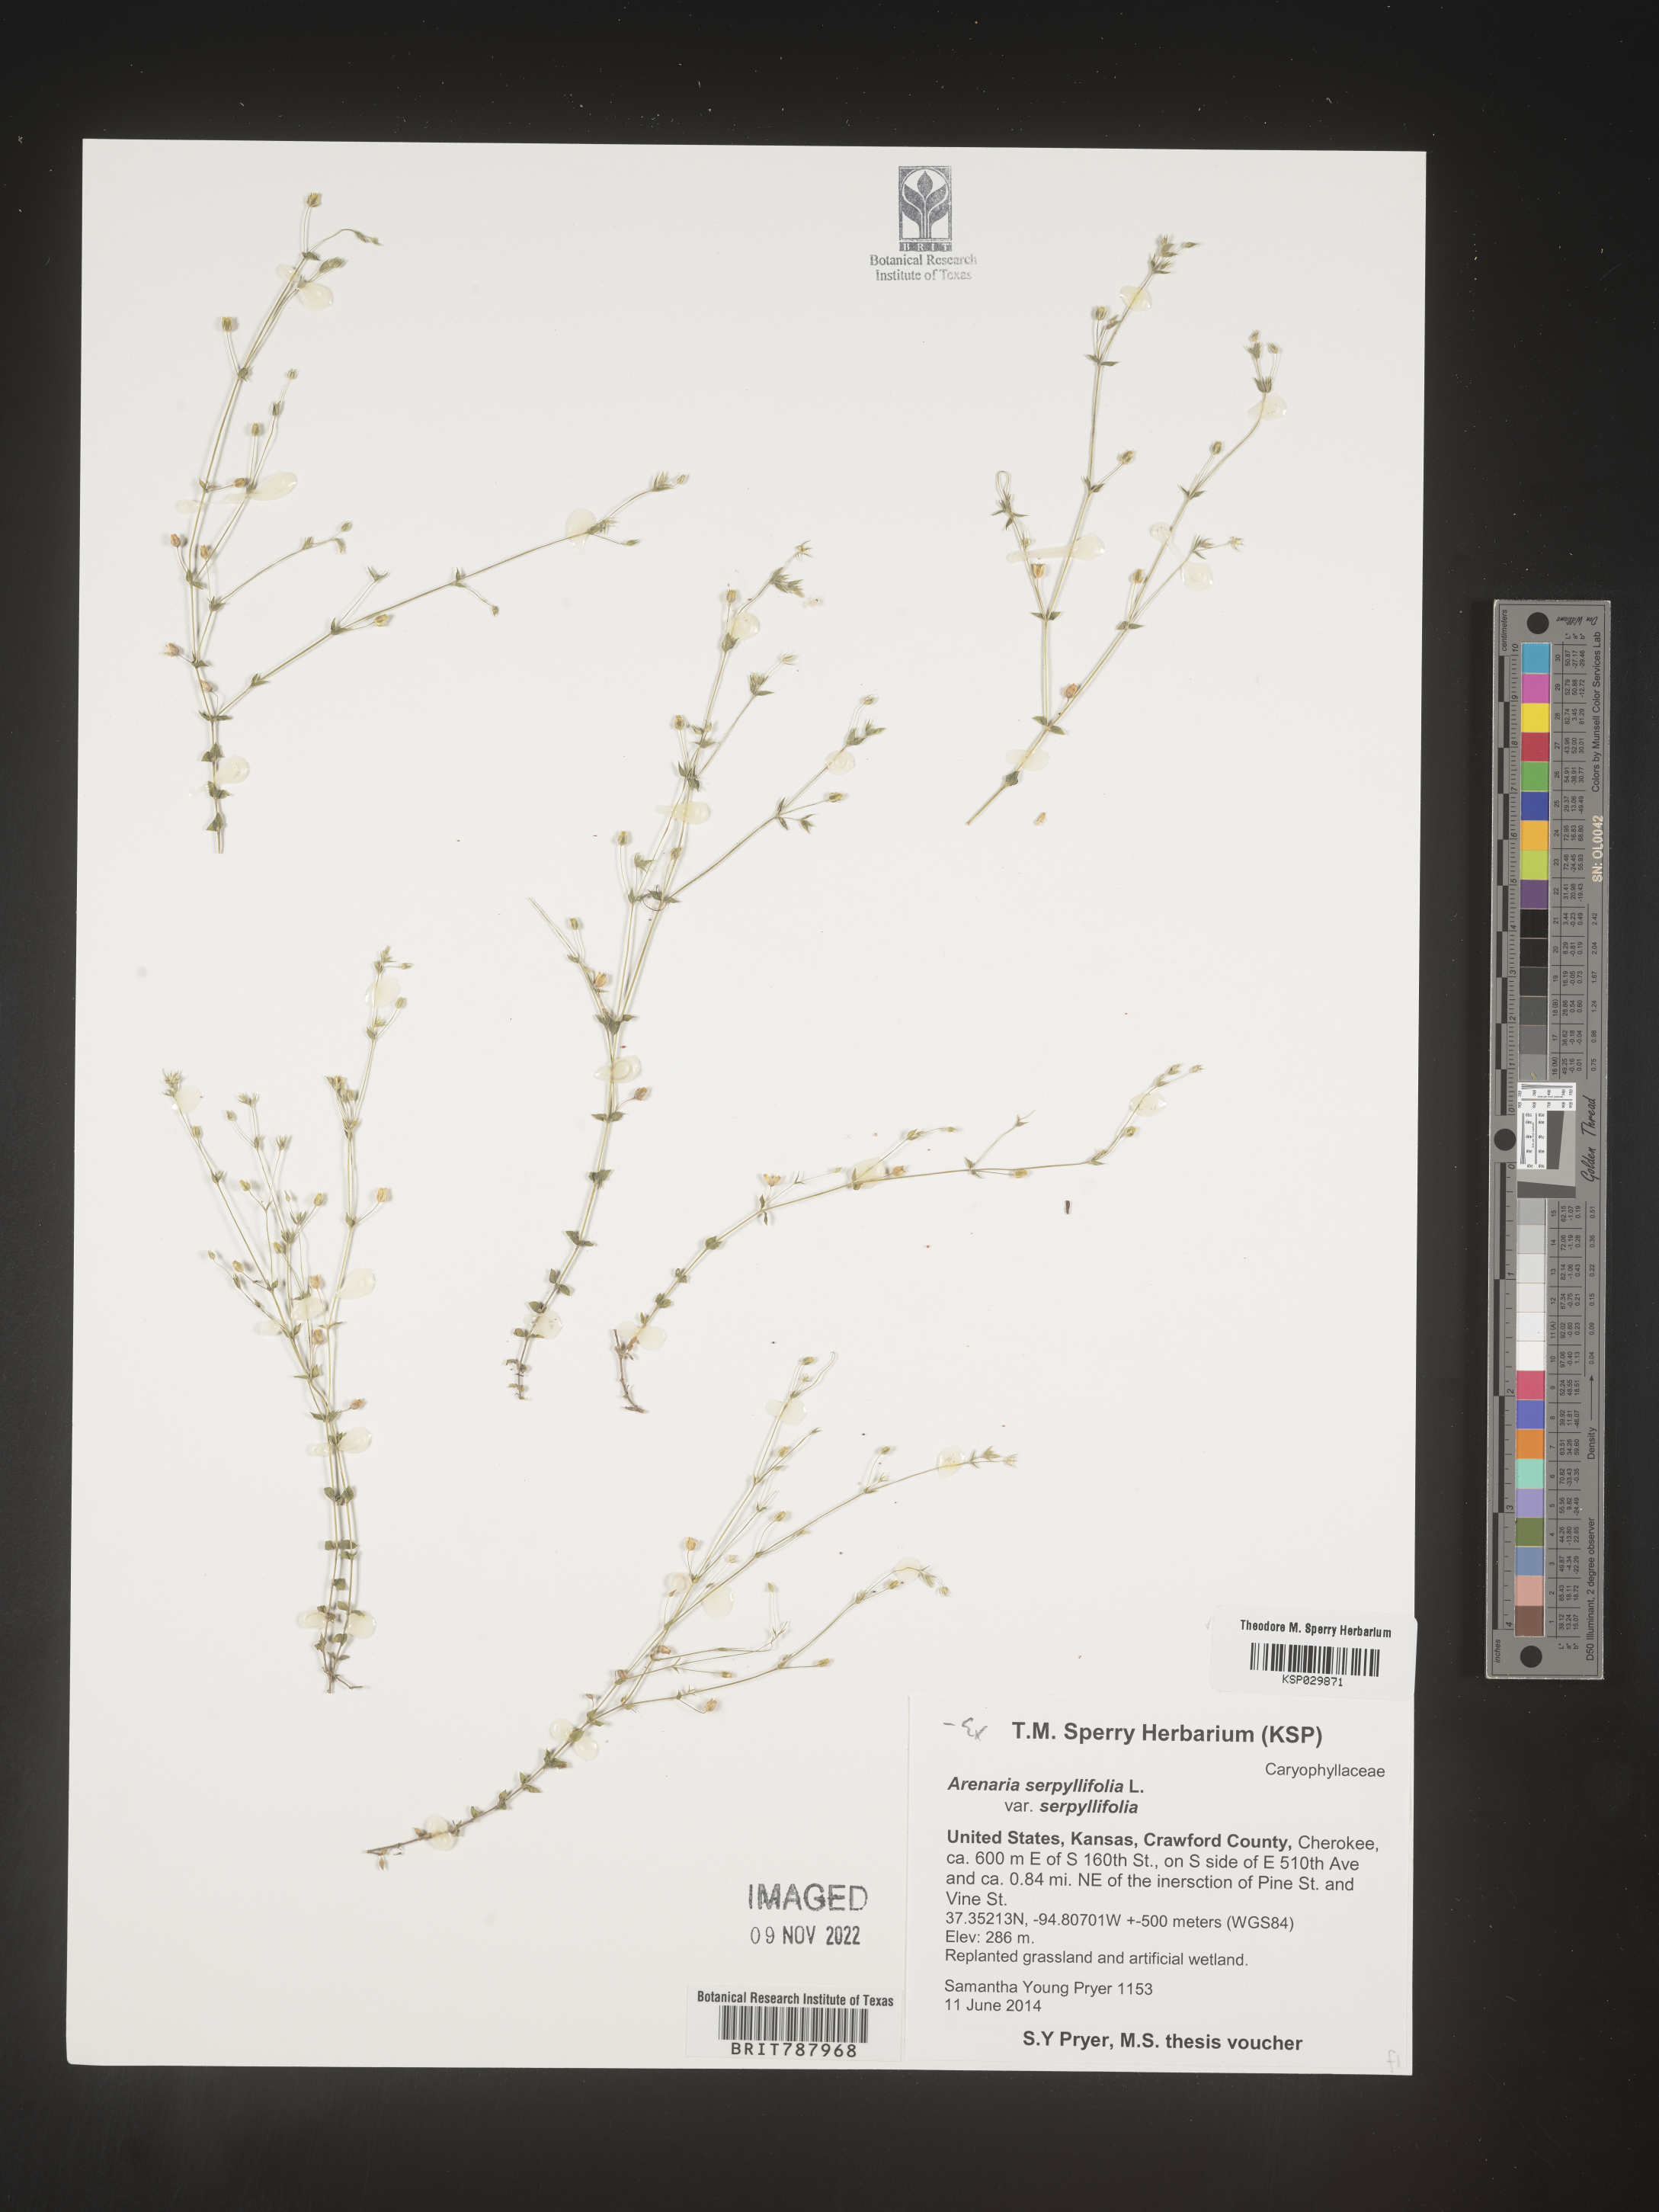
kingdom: Plantae
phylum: Tracheophyta
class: Magnoliopsida
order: Caryophyllales
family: Caryophyllaceae
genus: Arenaria
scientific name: Arenaria serpyllifolia
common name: Thyme-leaved sandwort
